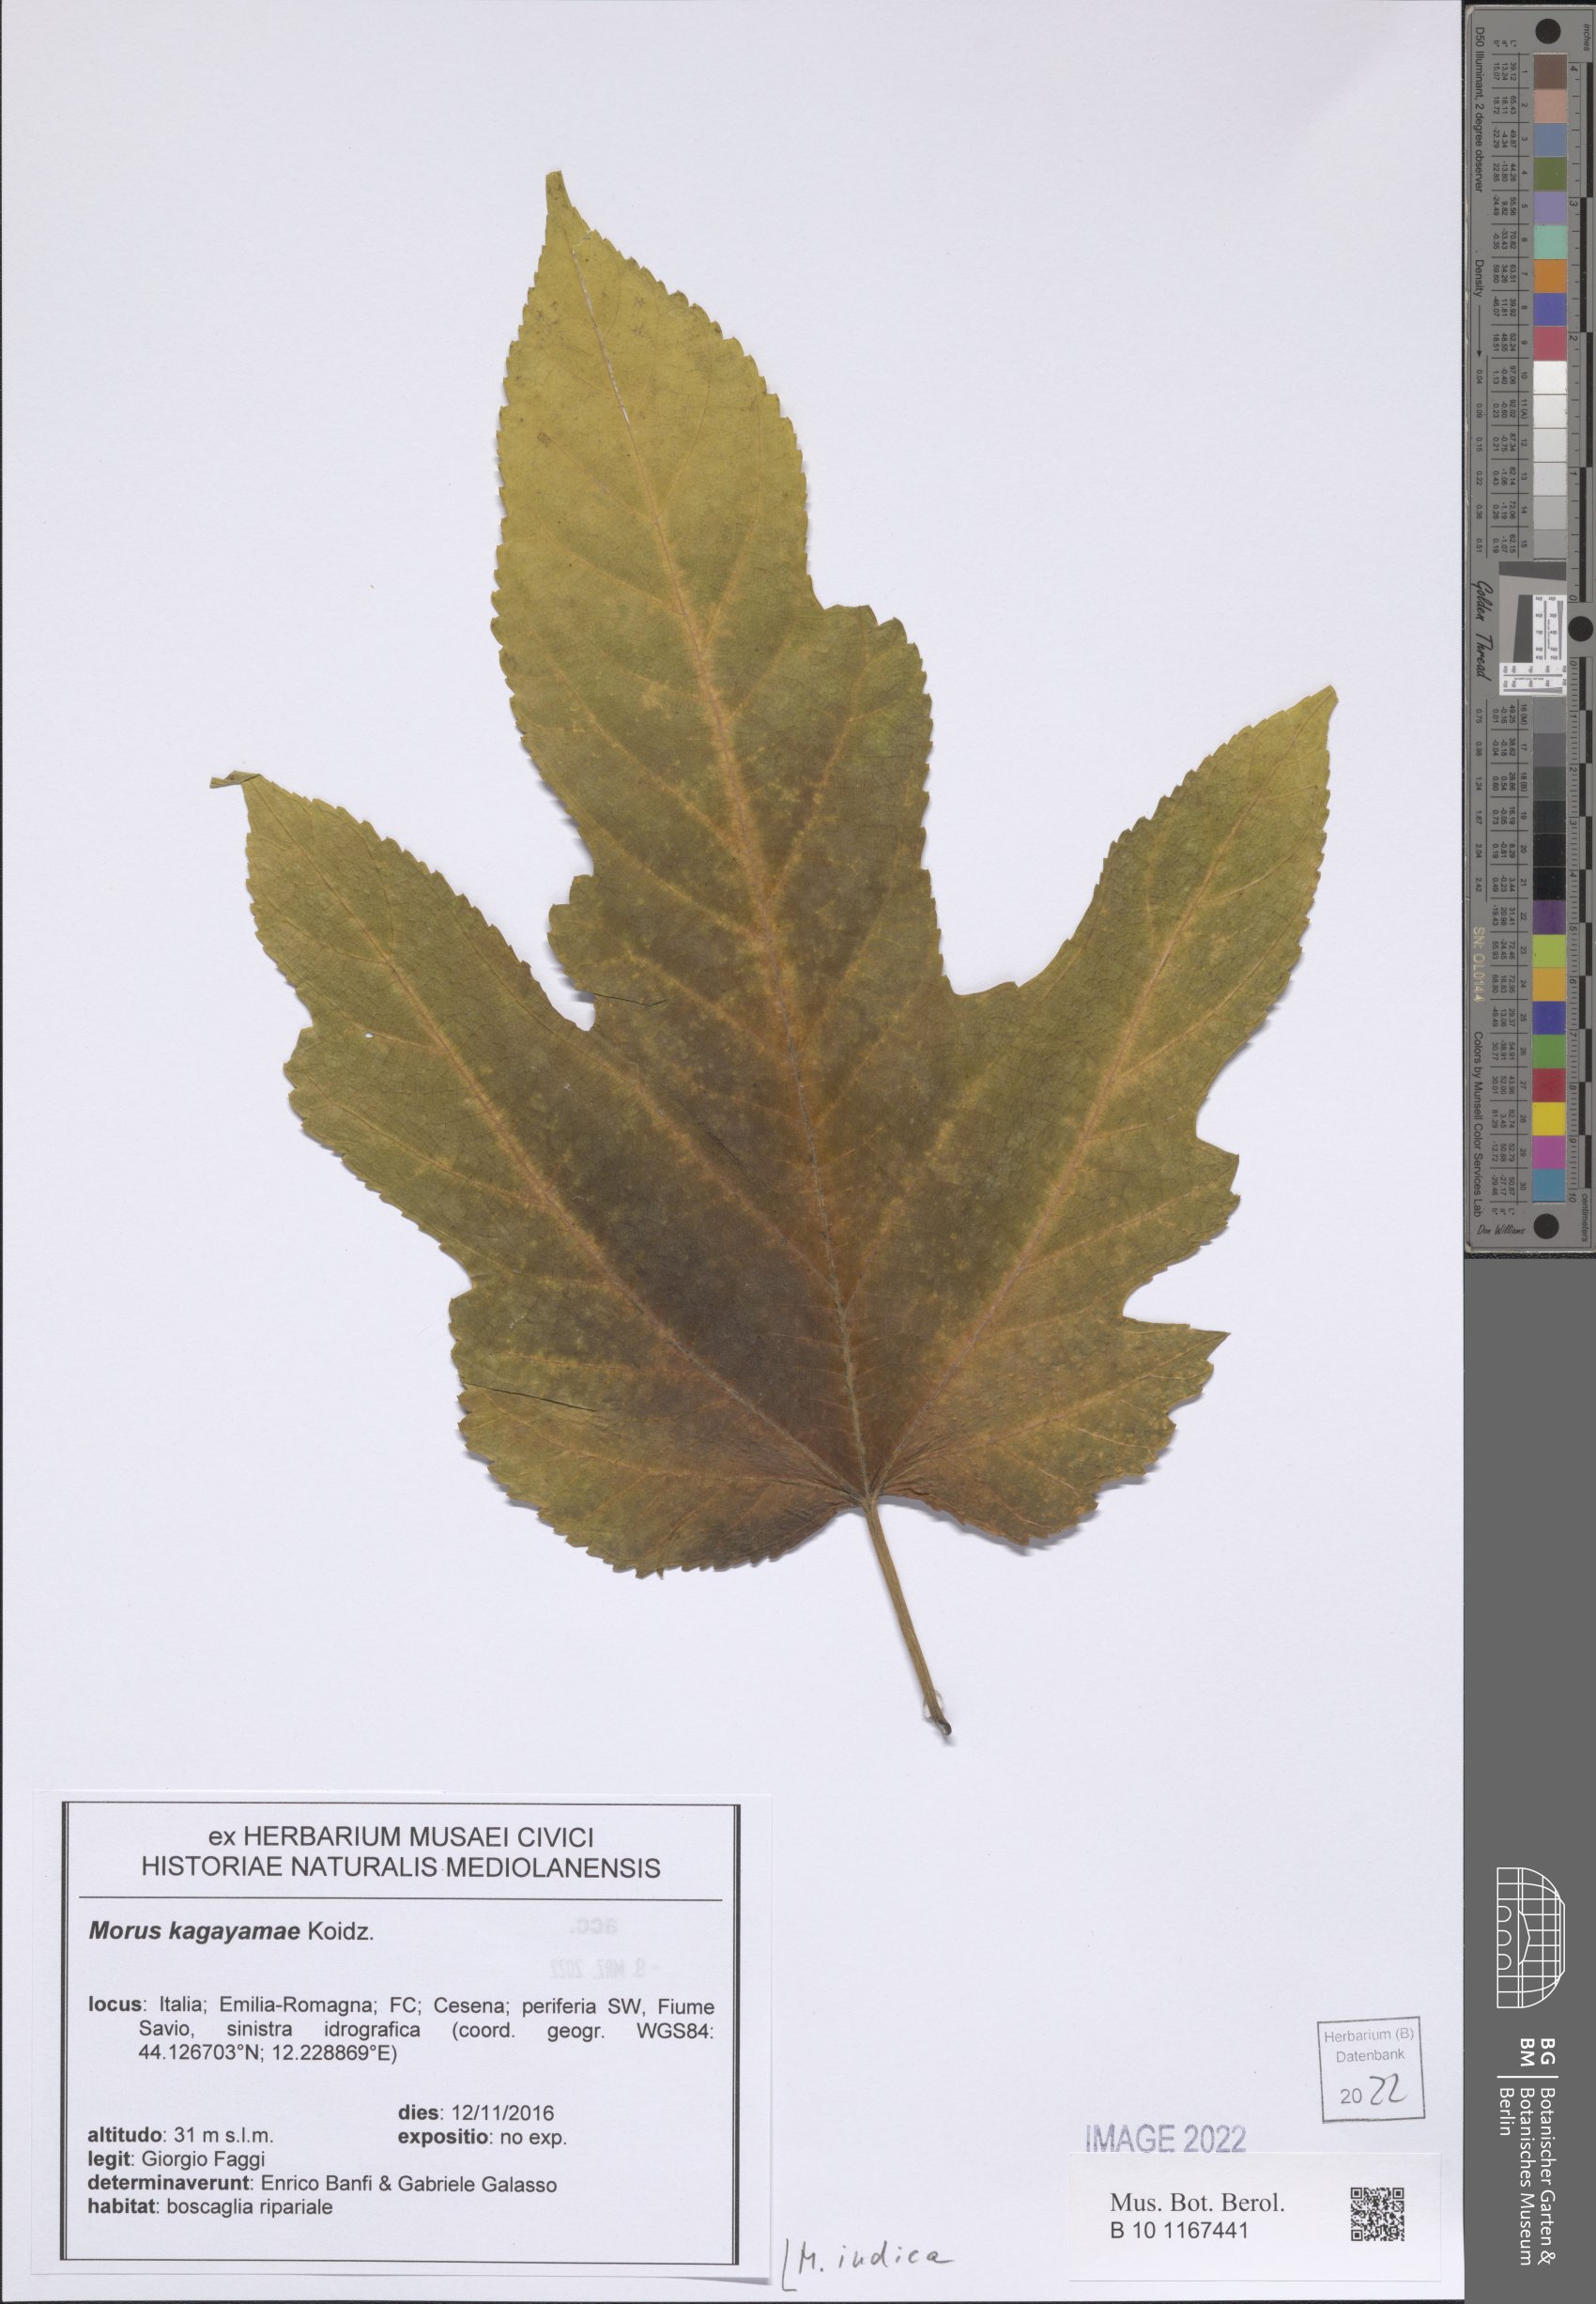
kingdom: Plantae
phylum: Tracheophyta
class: Magnoliopsida
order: Rosales
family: Moraceae
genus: Morus
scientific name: Morus indica
